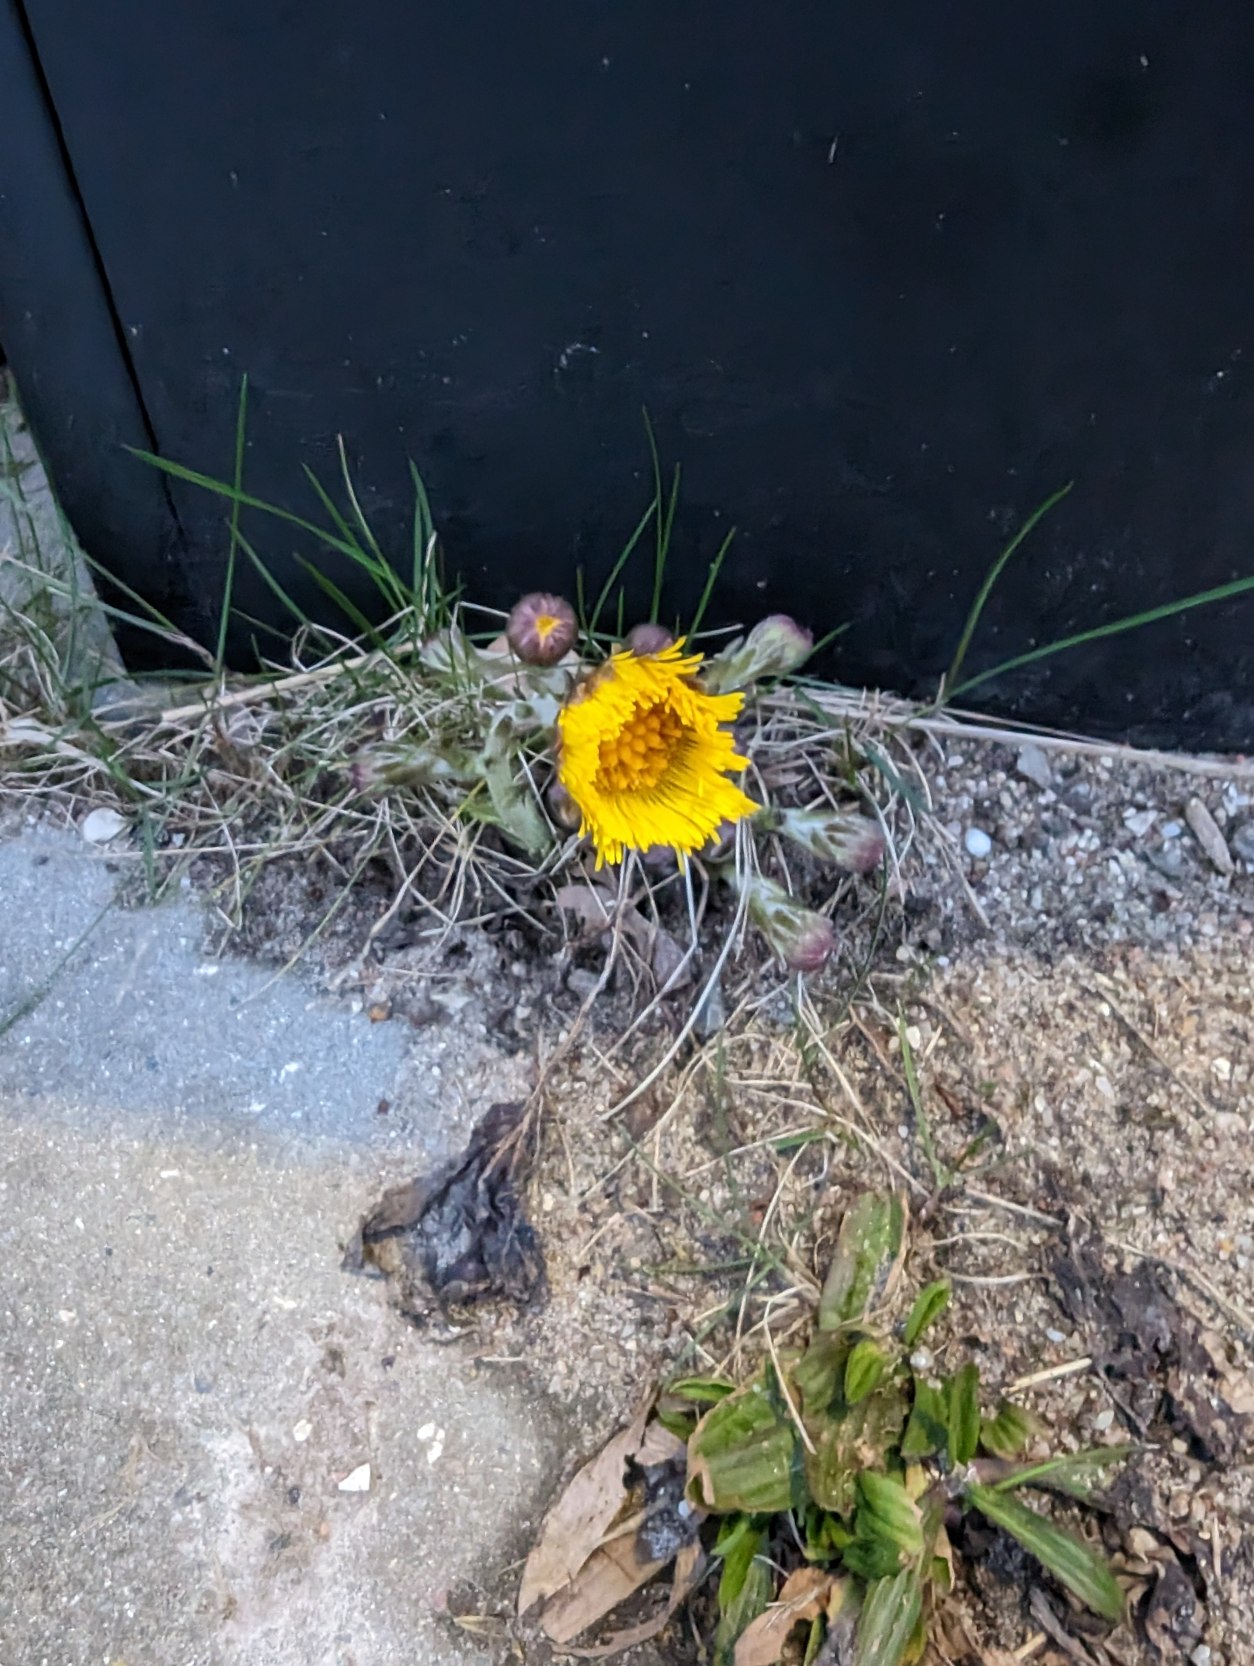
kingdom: Plantae
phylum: Tracheophyta
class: Magnoliopsida
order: Asterales
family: Asteraceae
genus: Tussilago
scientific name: Tussilago farfara
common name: Følfod
